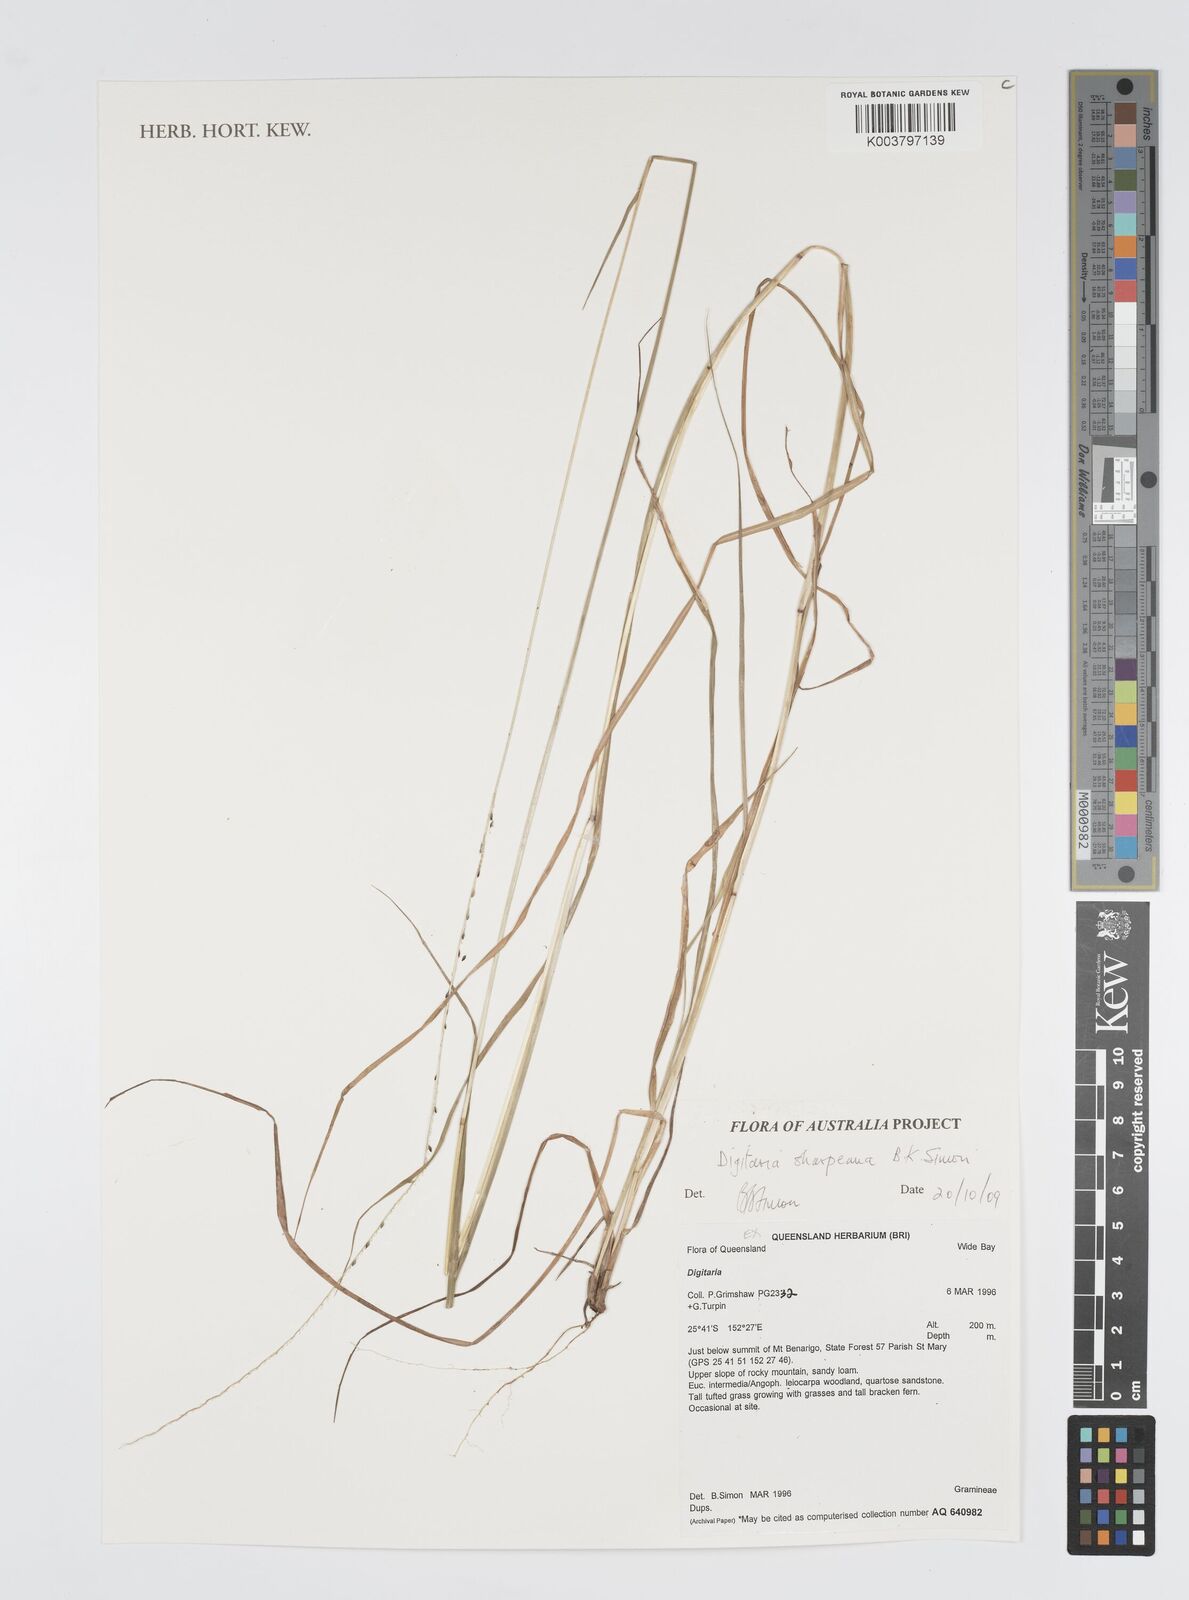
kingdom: Plantae
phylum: Tracheophyta
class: Liliopsida
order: Poales
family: Poaceae
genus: Digitaria
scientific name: Digitaria sharpeana
